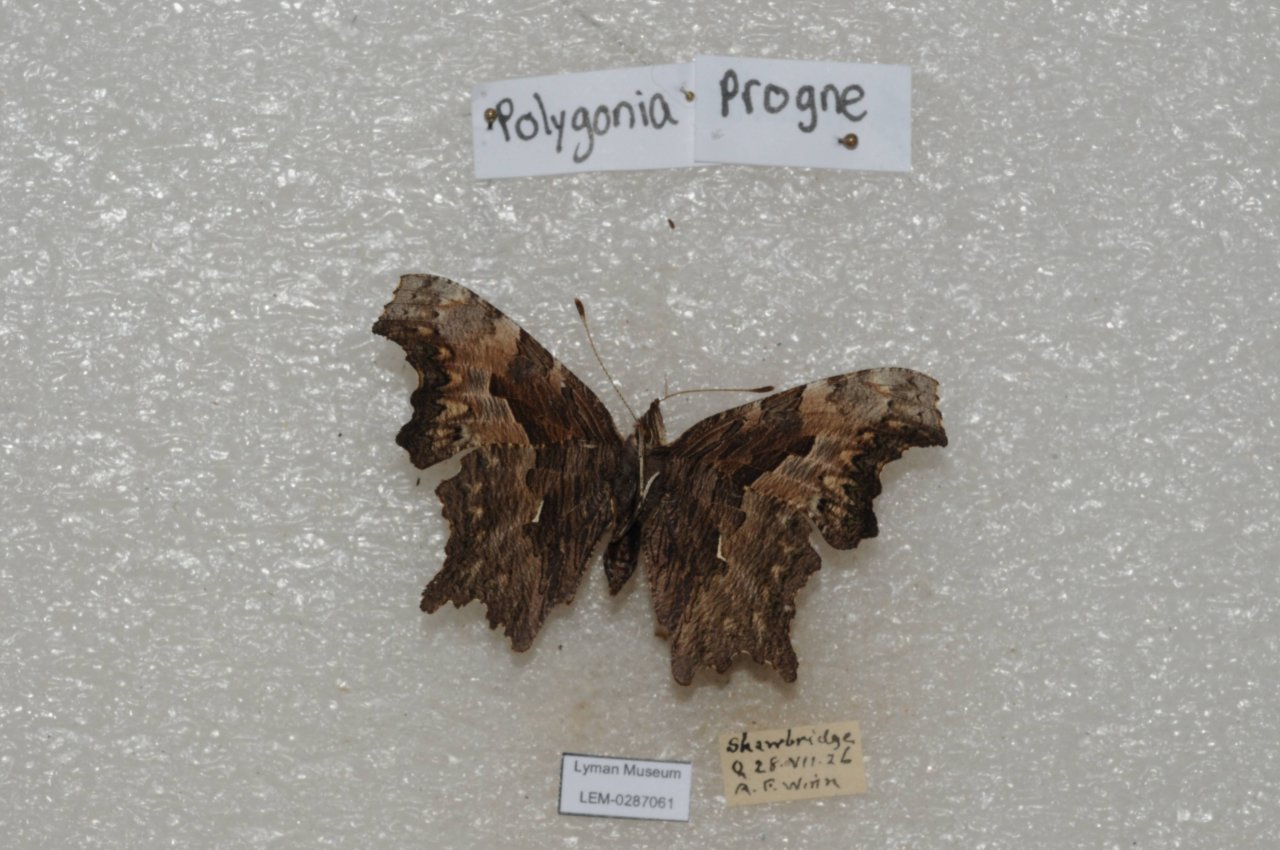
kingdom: Animalia
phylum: Arthropoda
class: Insecta
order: Lepidoptera
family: Nymphalidae
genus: Polygonia
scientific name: Polygonia progne
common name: Gray Comma
